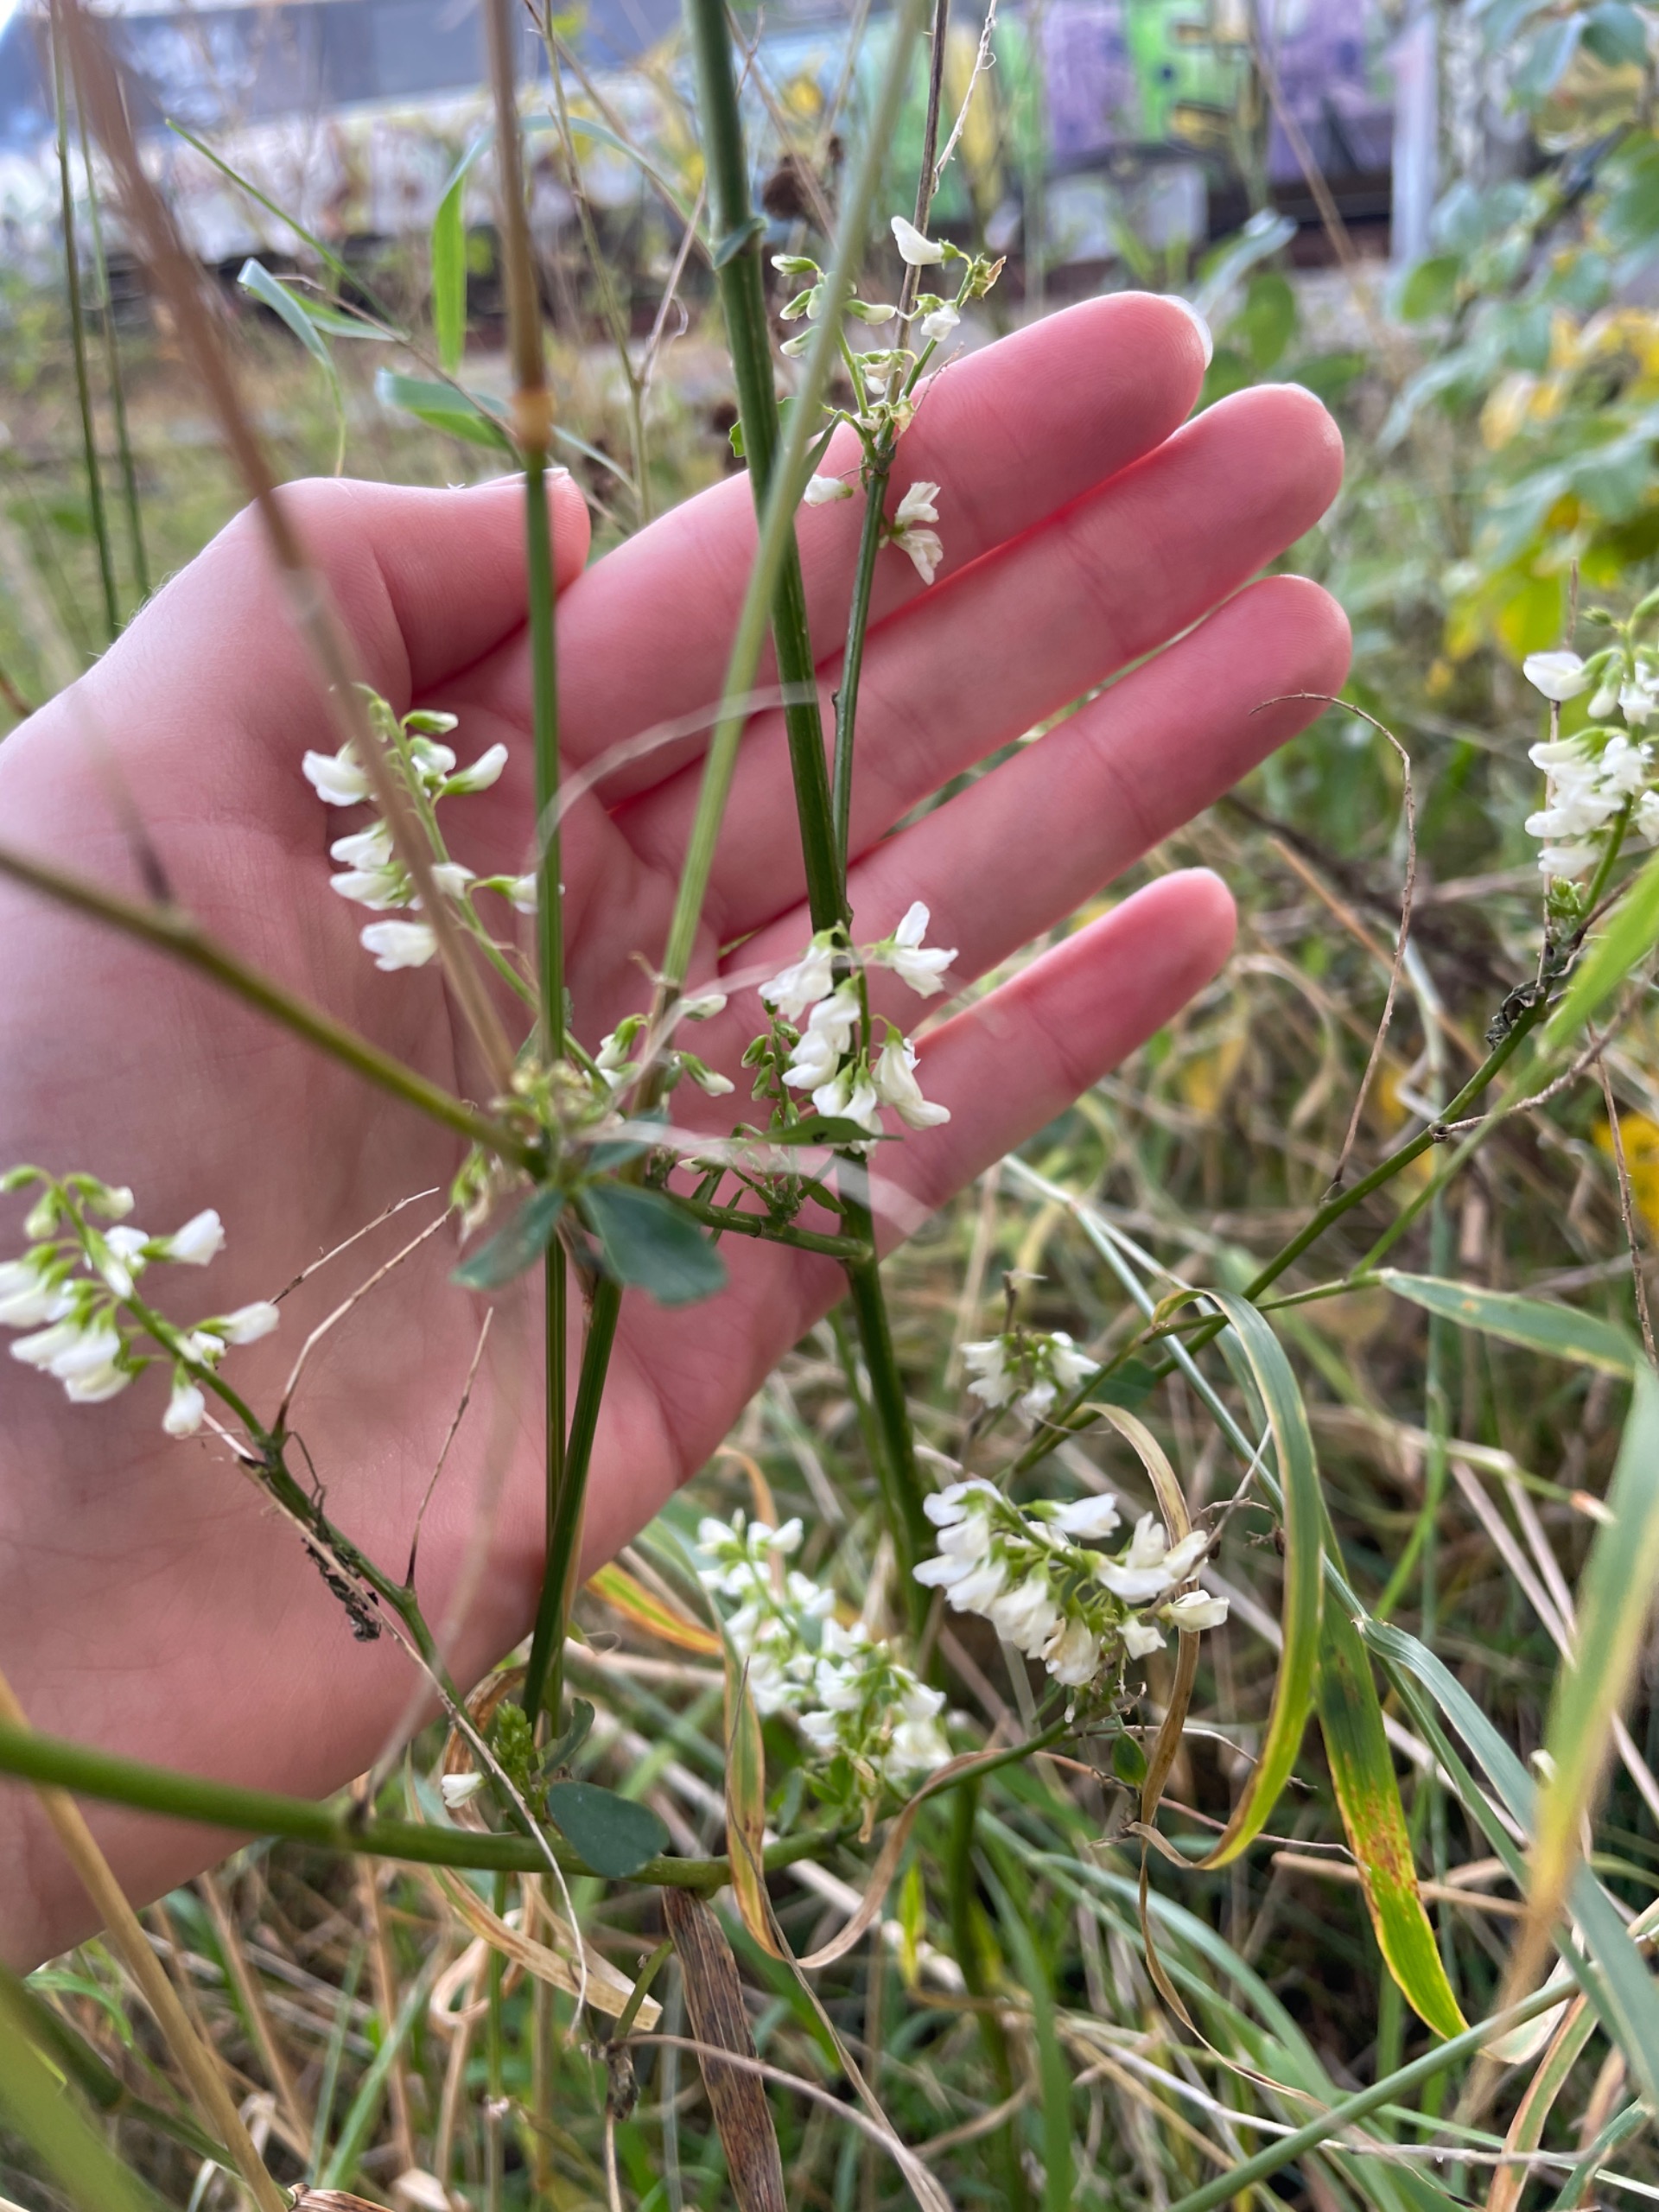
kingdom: Plantae
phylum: Tracheophyta
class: Magnoliopsida
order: Fabales
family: Fabaceae
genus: Melilotus
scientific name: Melilotus albus
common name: Hvid stenkløver
